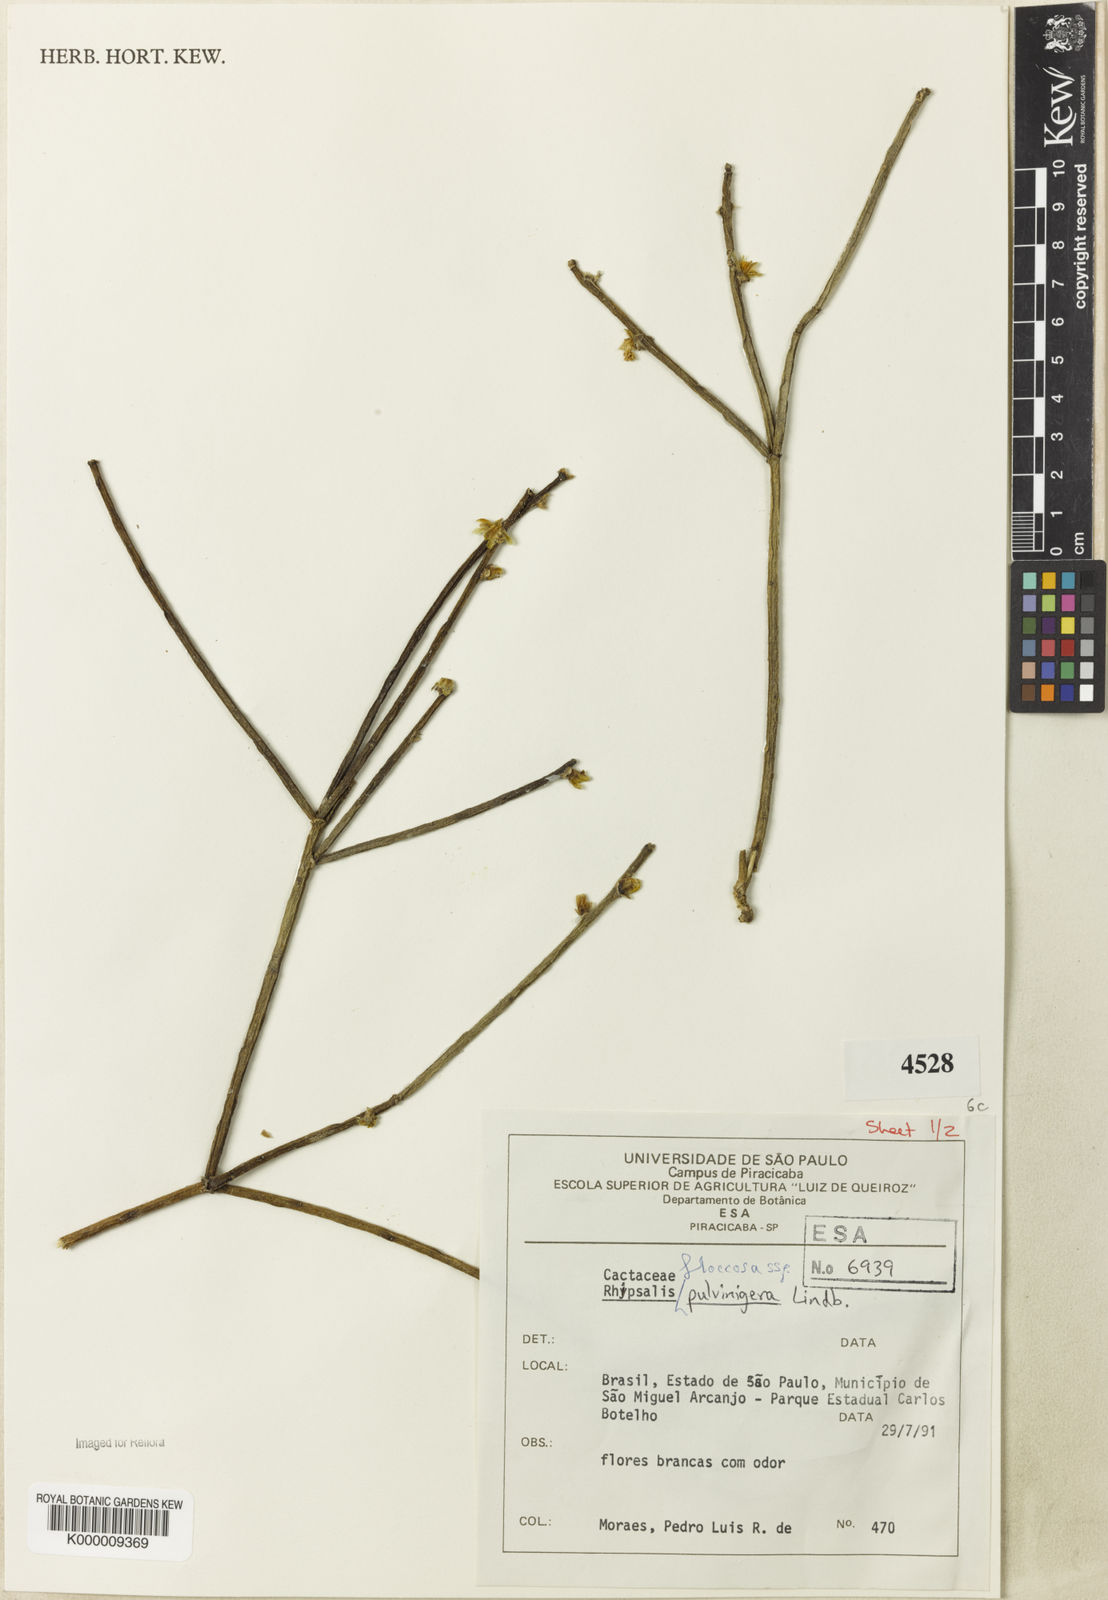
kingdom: Plantae
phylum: Tracheophyta
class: Magnoliopsida
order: Caryophyllales
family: Cactaceae
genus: Rhipsalis
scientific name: Rhipsalis floccosa
